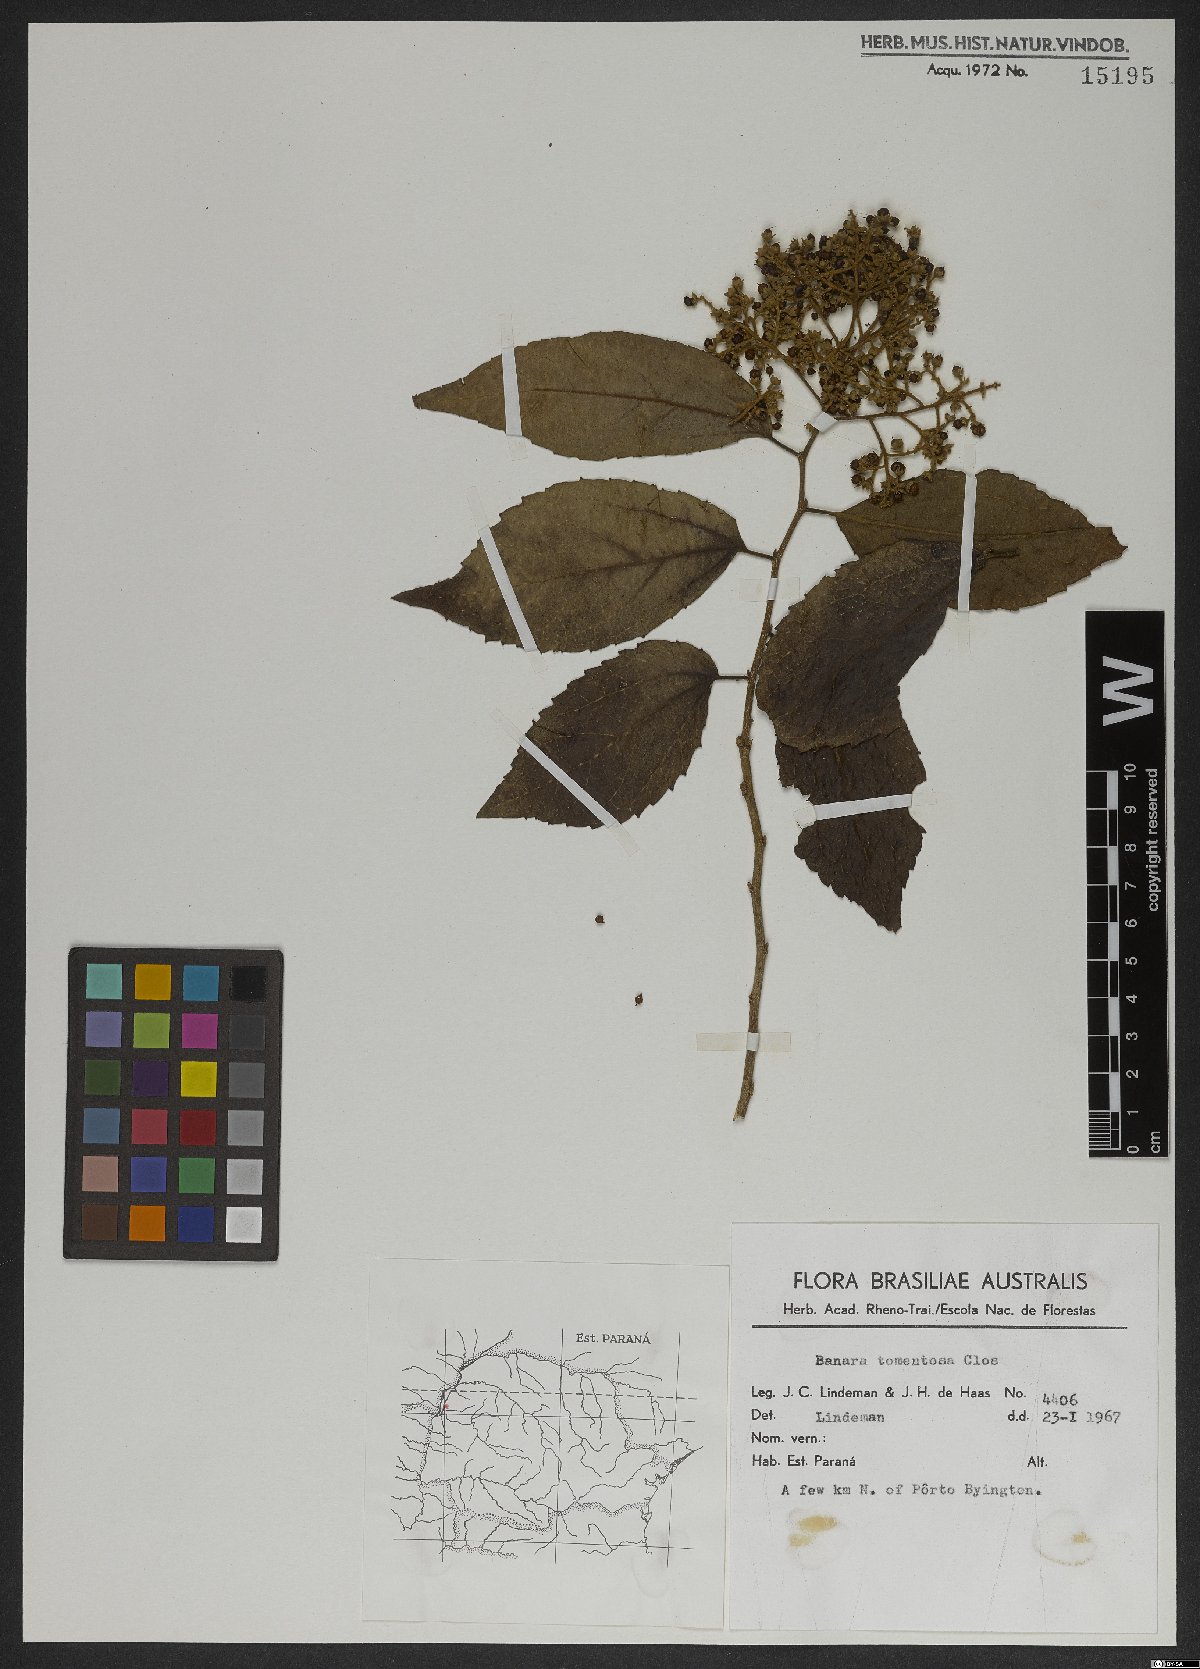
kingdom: Plantae
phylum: Tracheophyta
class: Magnoliopsida
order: Malpighiales
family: Salicaceae
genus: Banara
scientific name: Banara tomentosa
